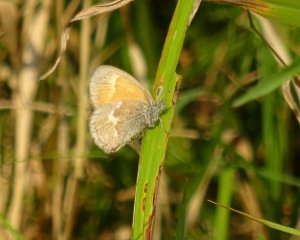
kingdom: Animalia
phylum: Arthropoda
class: Insecta
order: Lepidoptera
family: Nymphalidae
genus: Coenonympha
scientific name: Coenonympha tullia
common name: Large Heath
